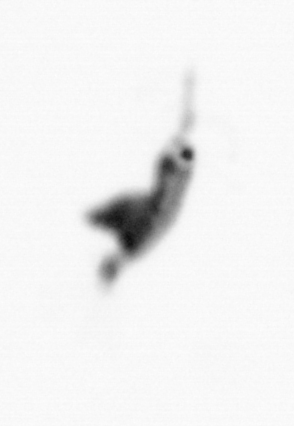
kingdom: Animalia
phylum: Arthropoda
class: Copepoda
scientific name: Copepoda
